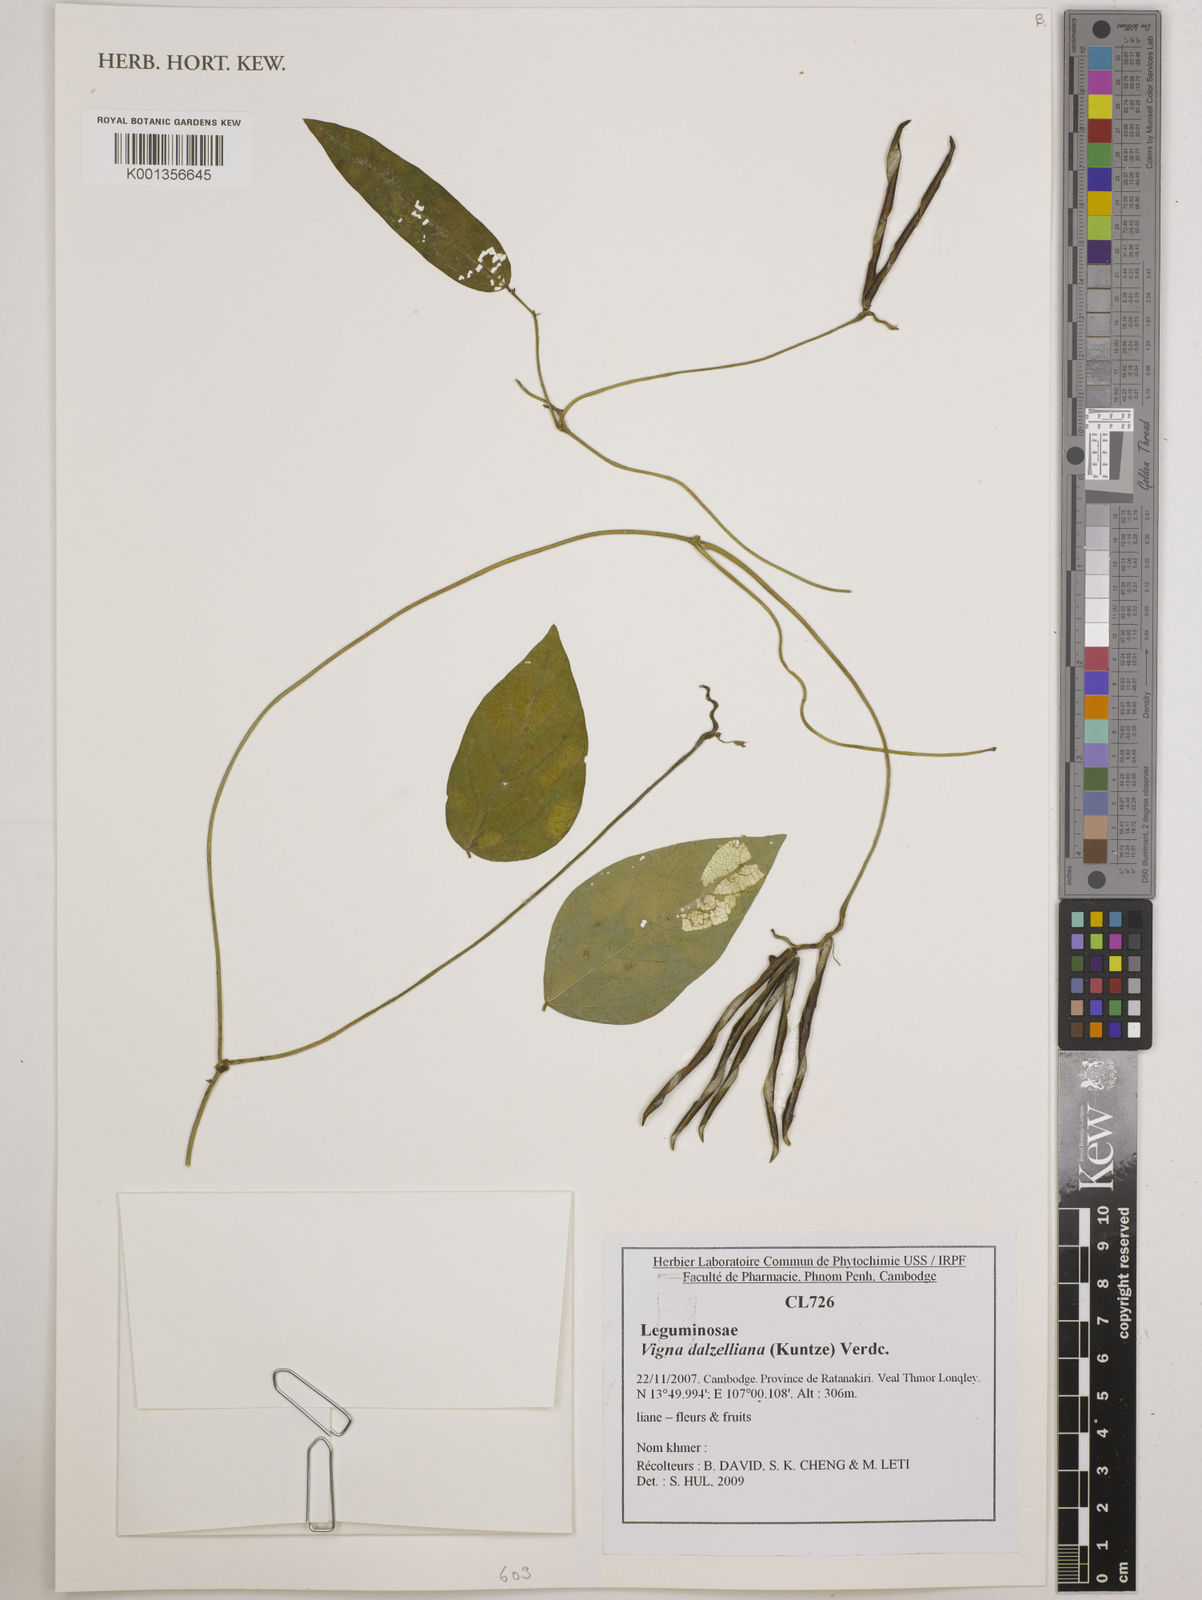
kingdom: Plantae
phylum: Tracheophyta
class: Magnoliopsida
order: Fabales
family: Fabaceae
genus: Vigna
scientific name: Vigna dalzelliana
